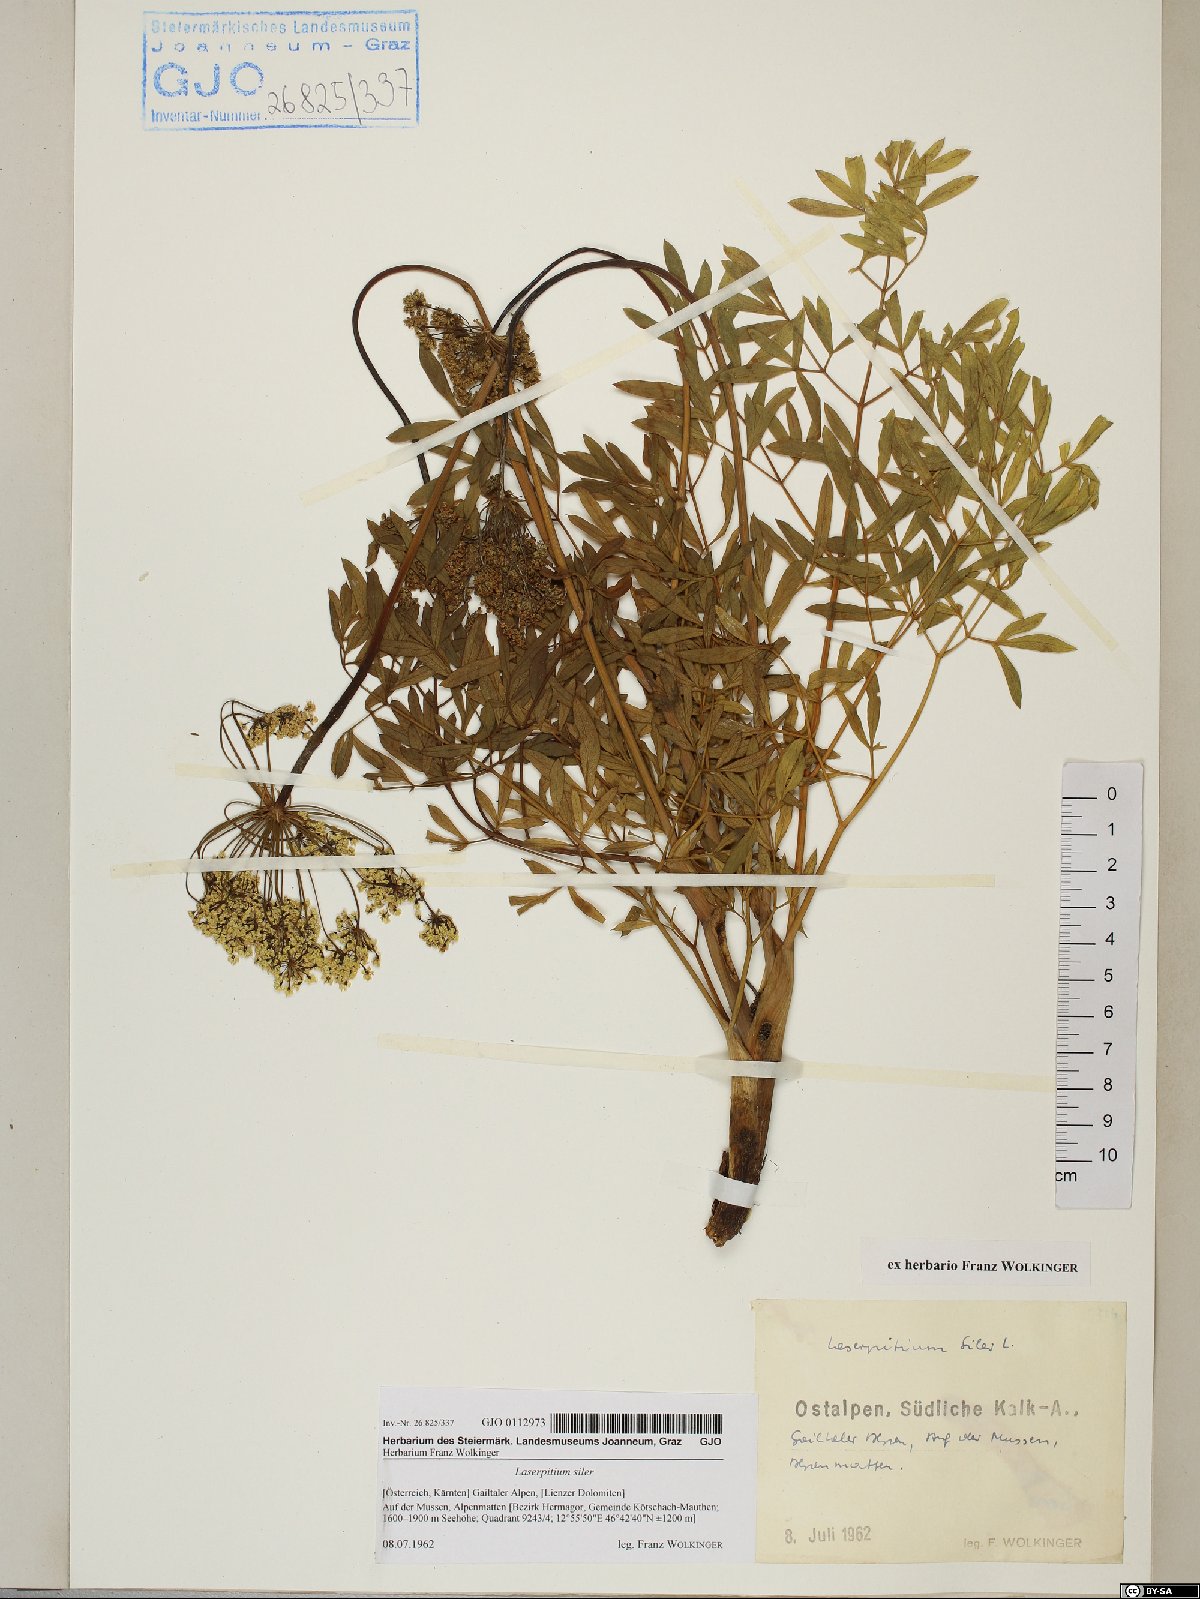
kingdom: Plantae
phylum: Tracheophyta
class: Magnoliopsida
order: Apiales
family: Apiaceae
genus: Siler
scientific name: Siler montanum
